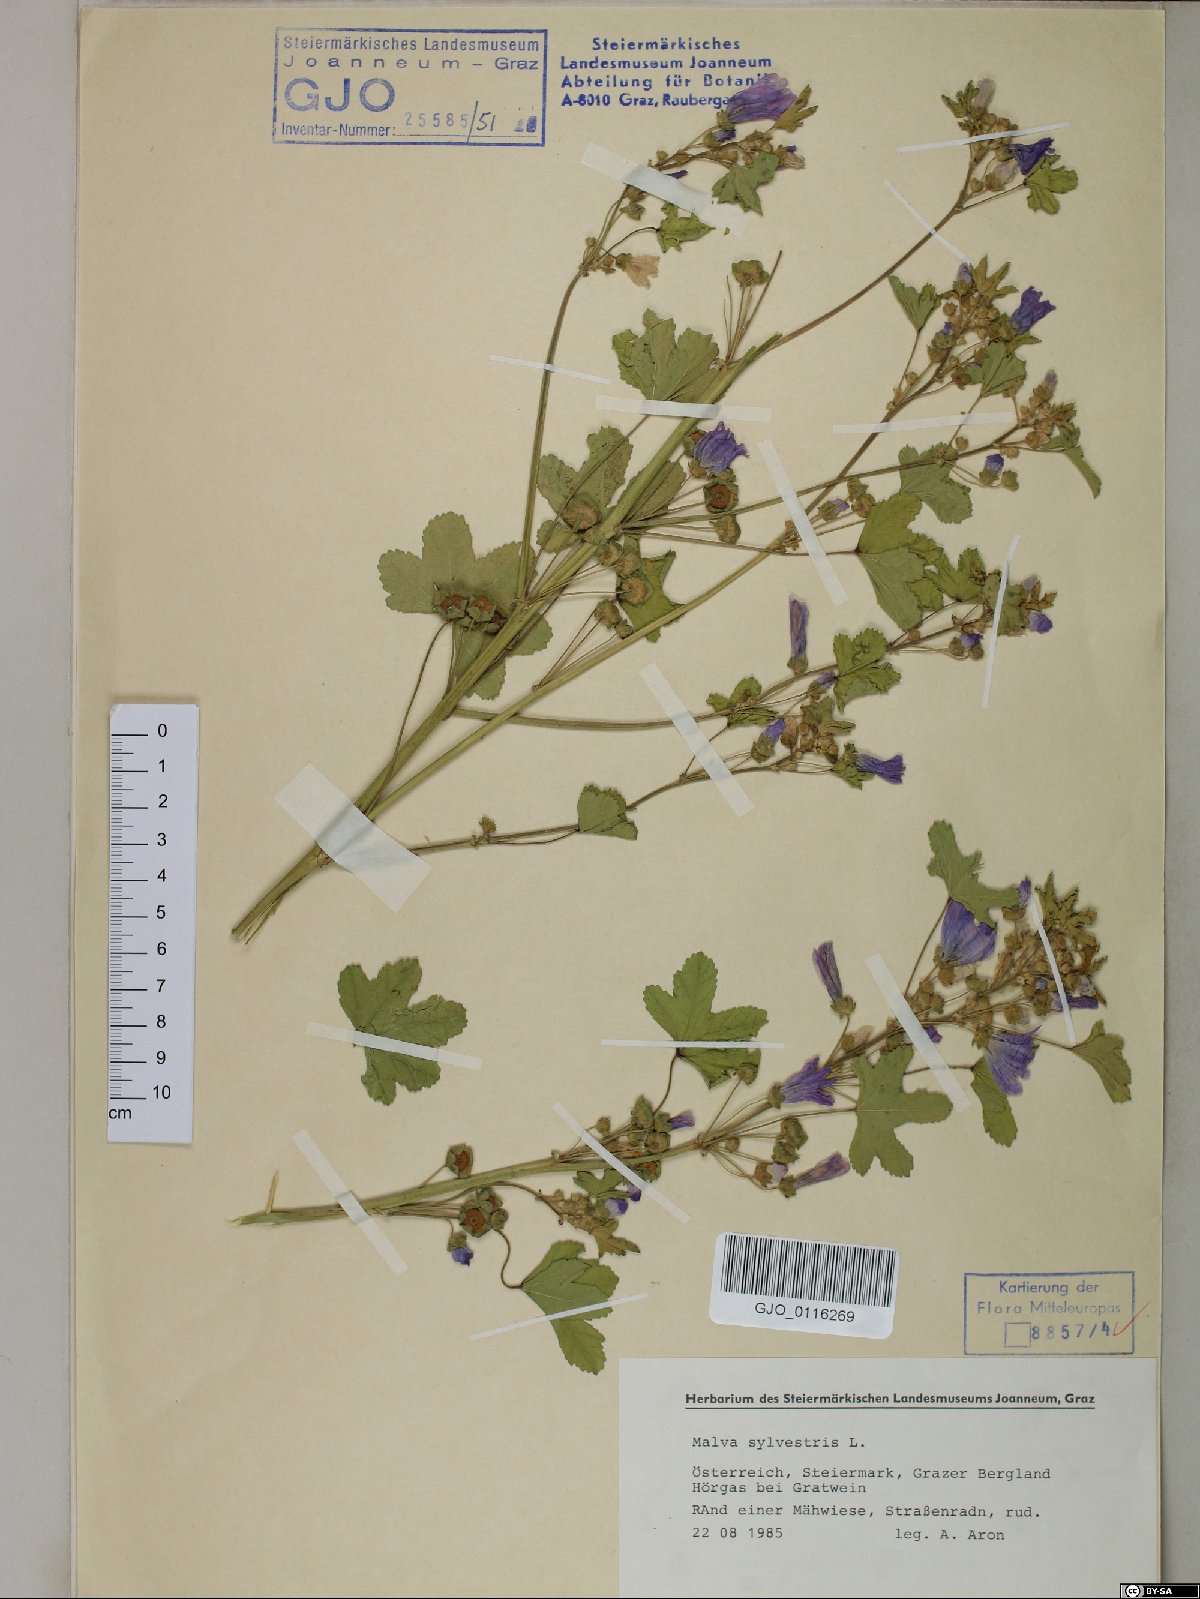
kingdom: Plantae
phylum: Tracheophyta
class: Magnoliopsida
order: Malvales
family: Malvaceae
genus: Malva
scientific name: Malva sylvestris
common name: Common mallow
